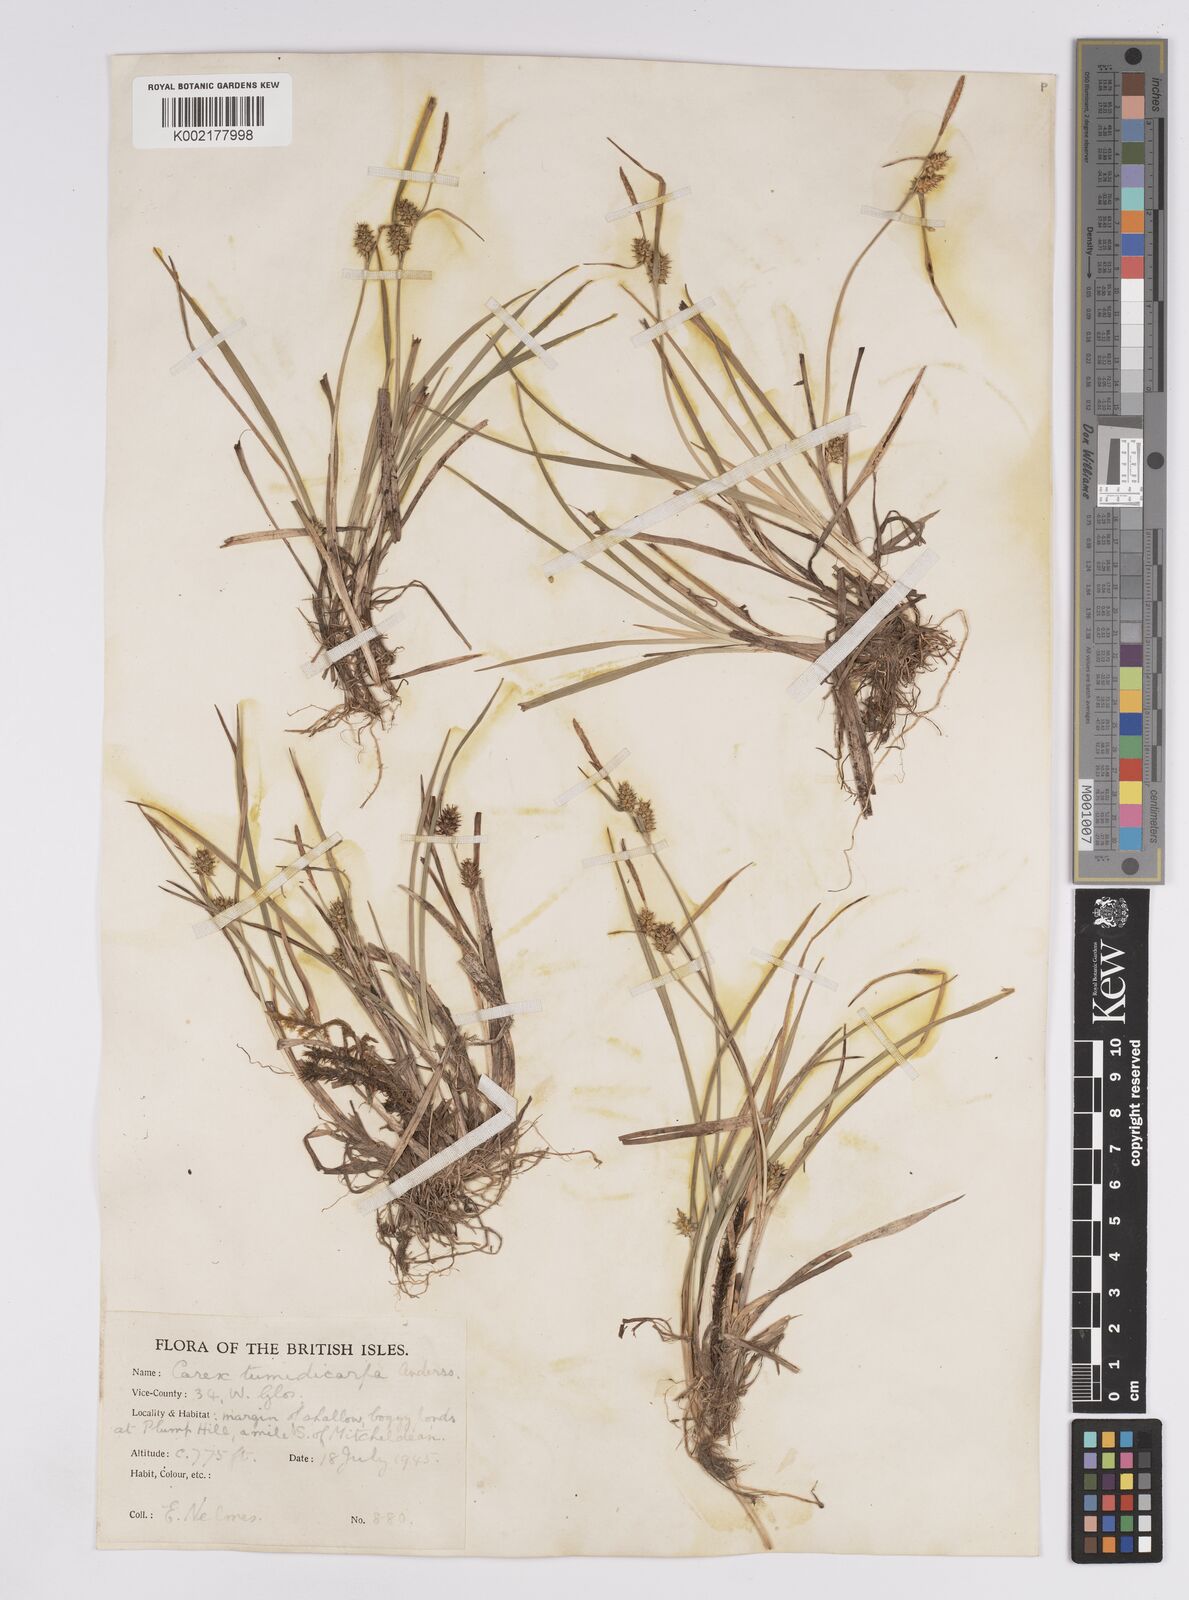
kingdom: Plantae
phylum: Tracheophyta
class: Liliopsida
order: Poales
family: Cyperaceae
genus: Carex
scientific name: Carex demissa
